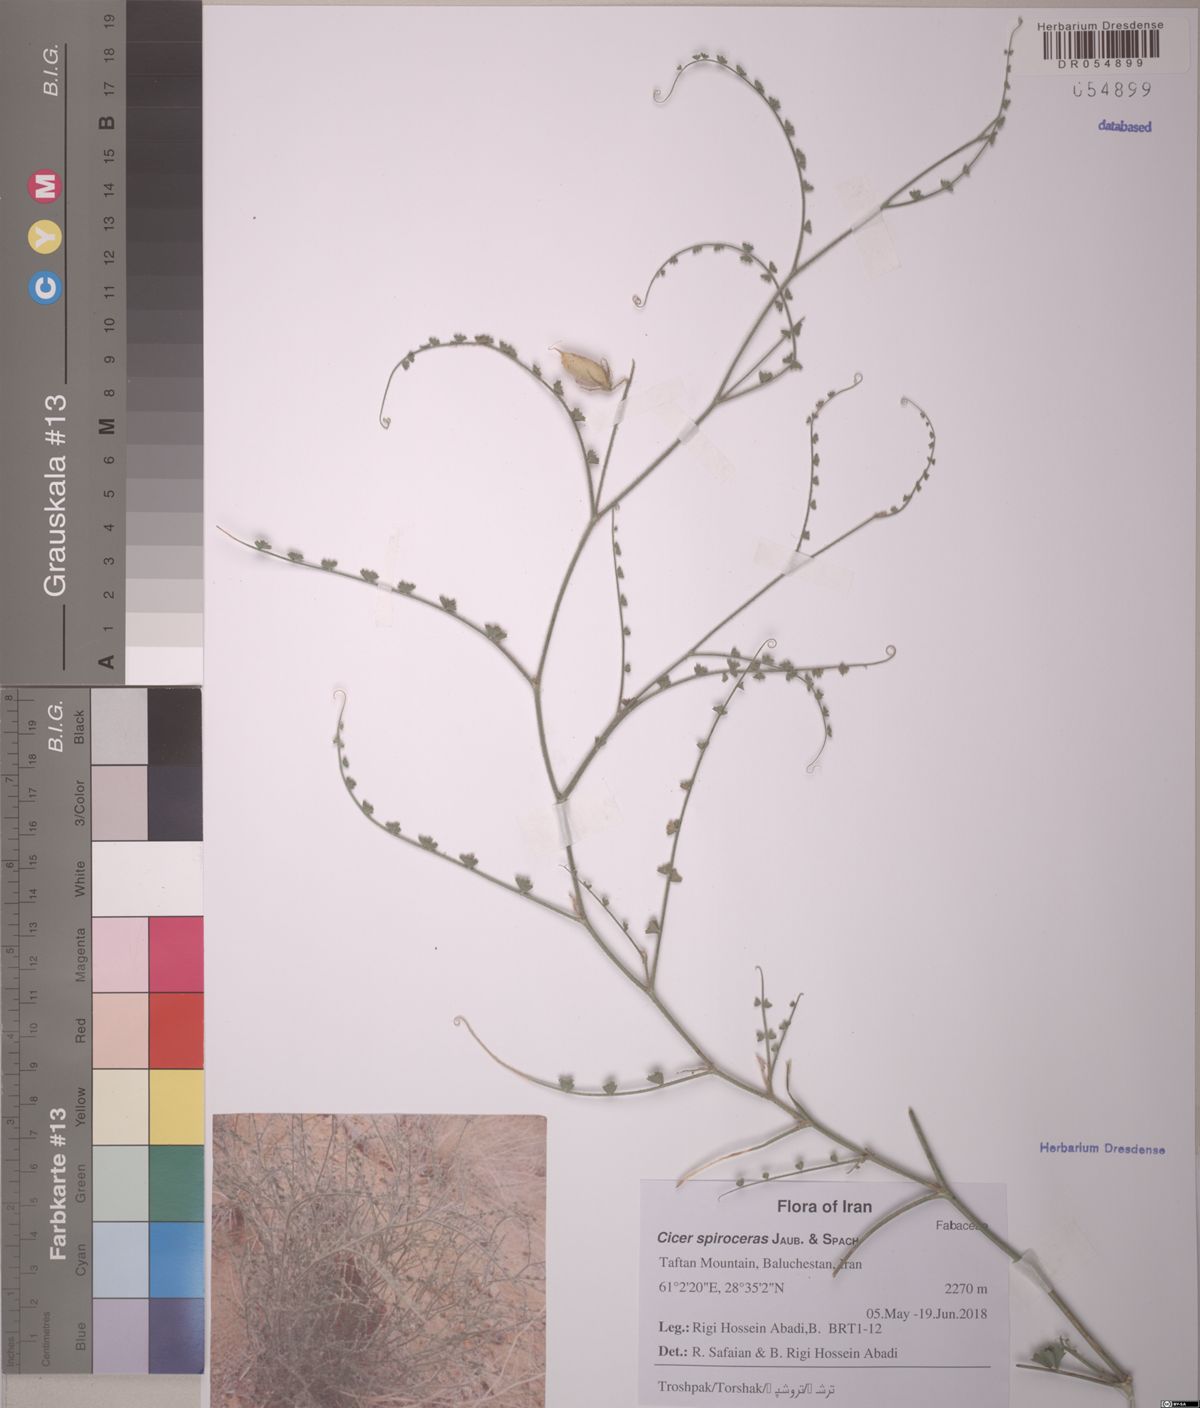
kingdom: Plantae
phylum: Tracheophyta
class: Magnoliopsida
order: Fabales
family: Fabaceae
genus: Cicer
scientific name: Cicer spiroceras
